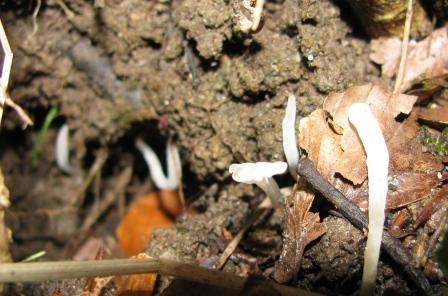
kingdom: Fungi
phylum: Basidiomycota
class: Agaricomycetes
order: Agaricales
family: Clavariaceae
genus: Clavaria
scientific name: Clavaria falcata
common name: hvid køllesvamp
